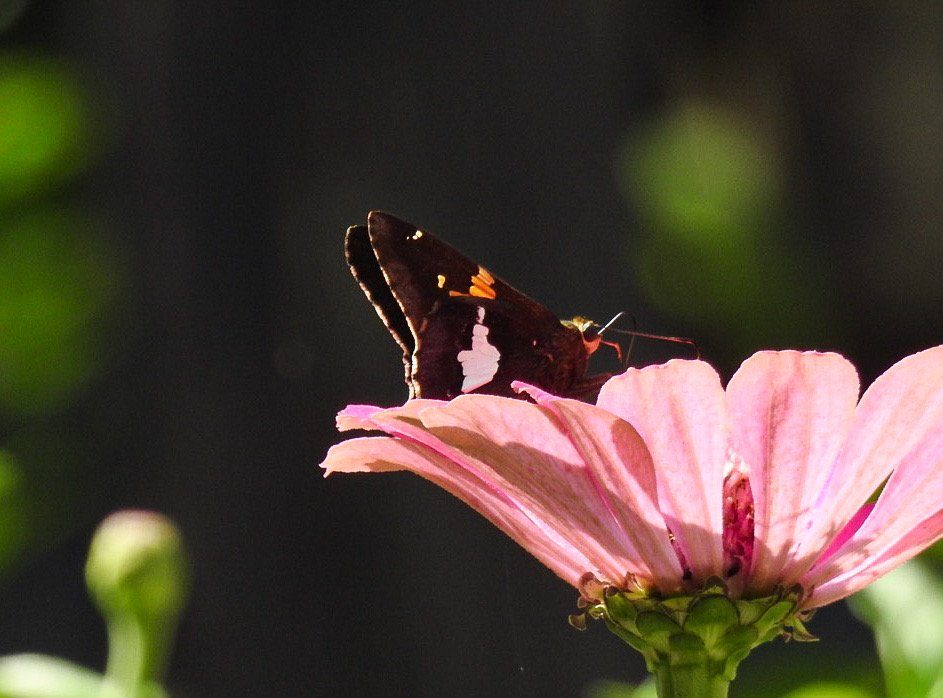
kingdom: Animalia
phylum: Arthropoda
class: Insecta
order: Lepidoptera
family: Hesperiidae
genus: Epargyreus
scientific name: Epargyreus clarus
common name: Silver-spotted Skipper
